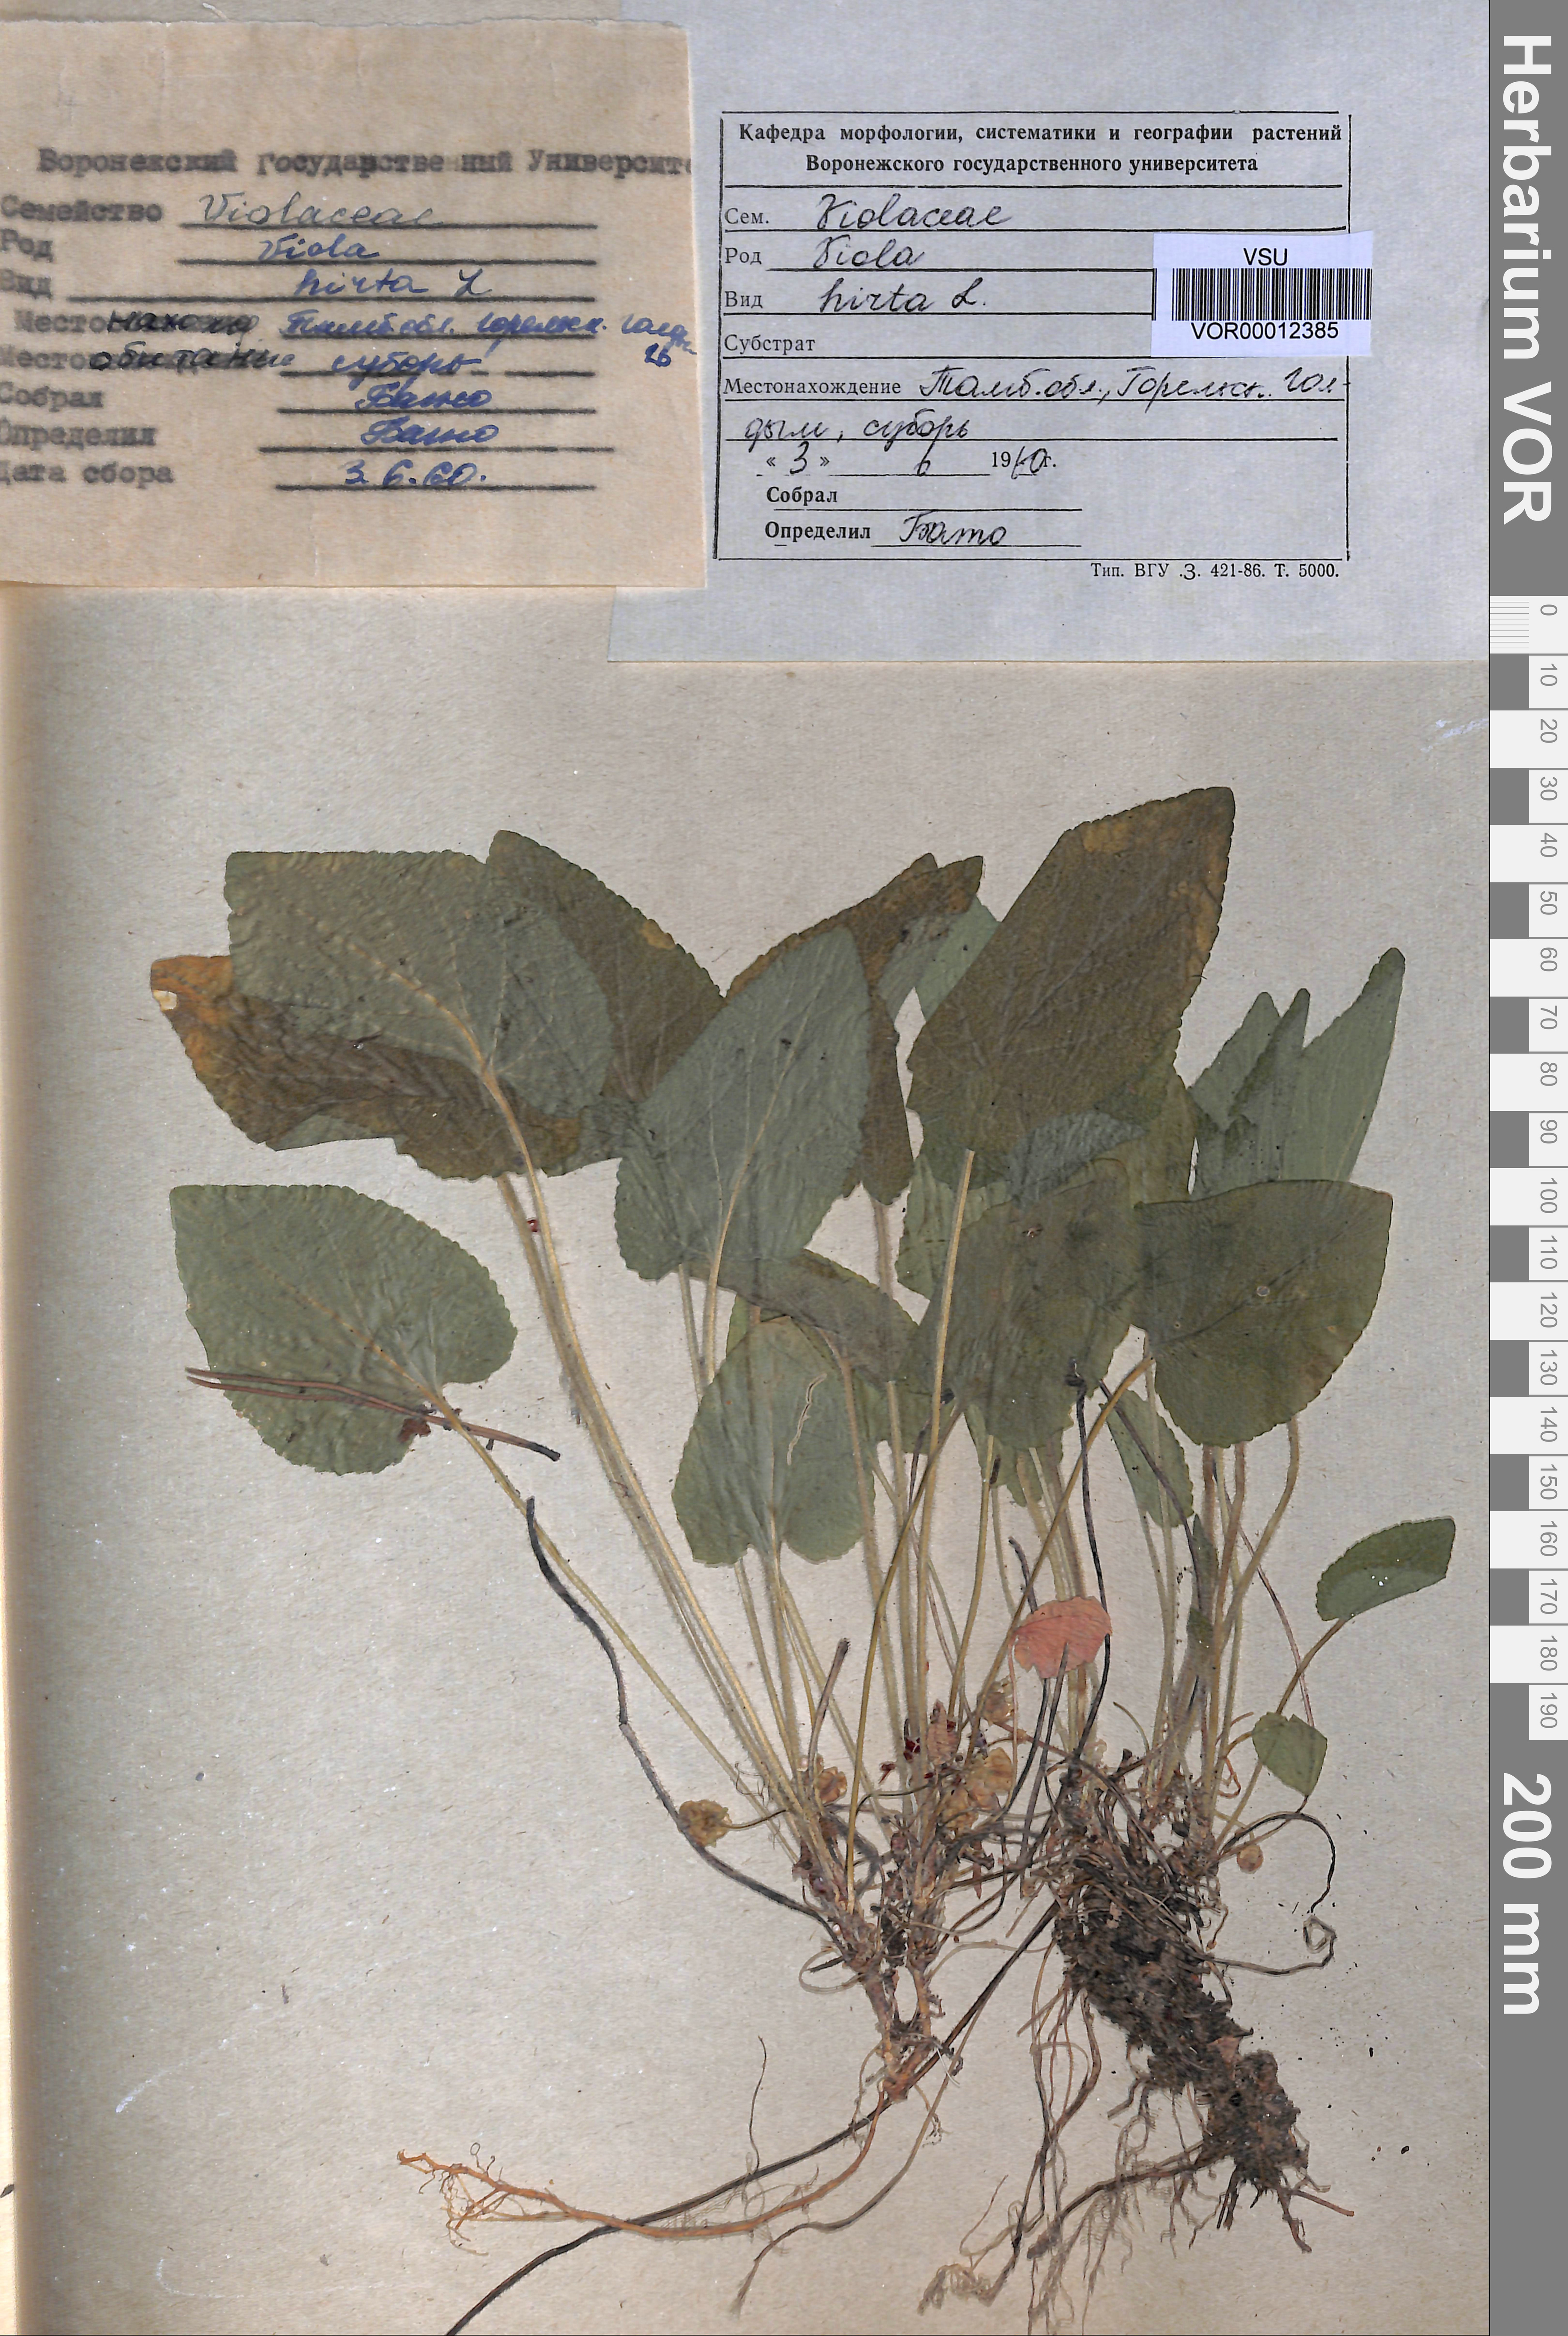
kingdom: Plantae
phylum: Tracheophyta
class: Magnoliopsida
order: Malpighiales
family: Violaceae
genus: Viola
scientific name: Viola hirta
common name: Hairy violet
